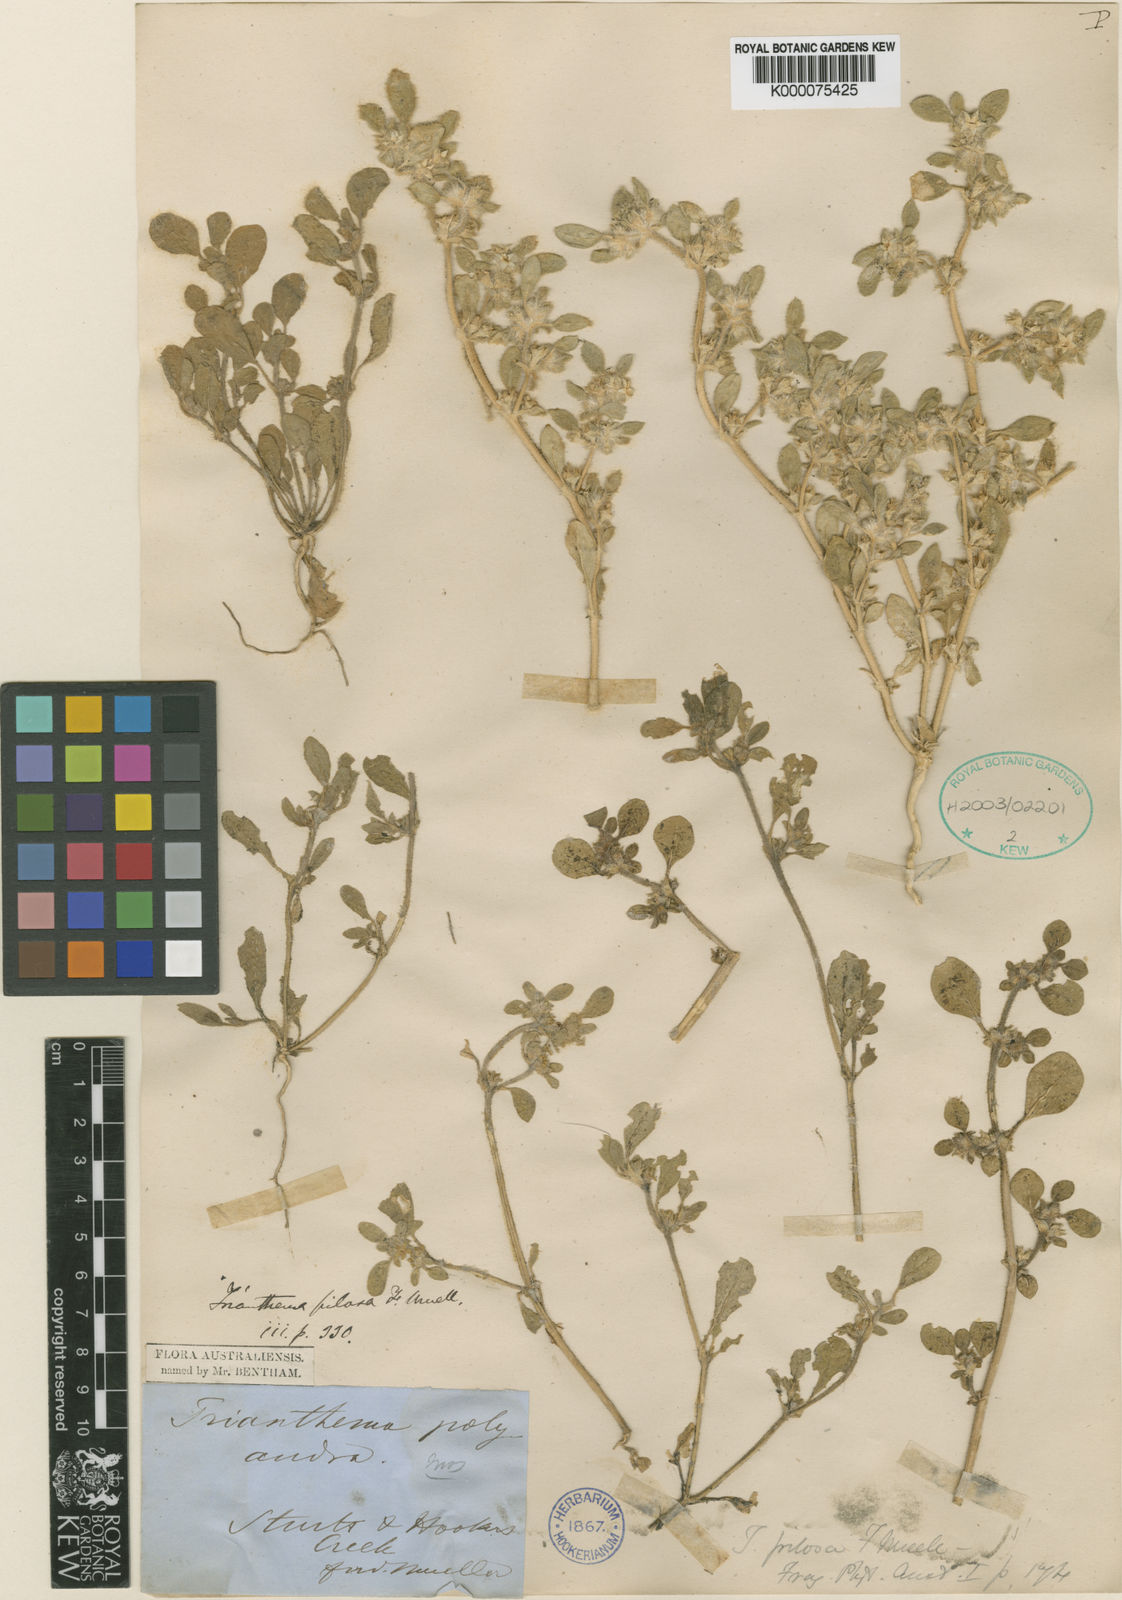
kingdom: Plantae
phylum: Tracheophyta
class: Magnoliopsida
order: Caryophyllales
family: Aizoaceae
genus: Trianthema
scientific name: Trianthema pilosum
